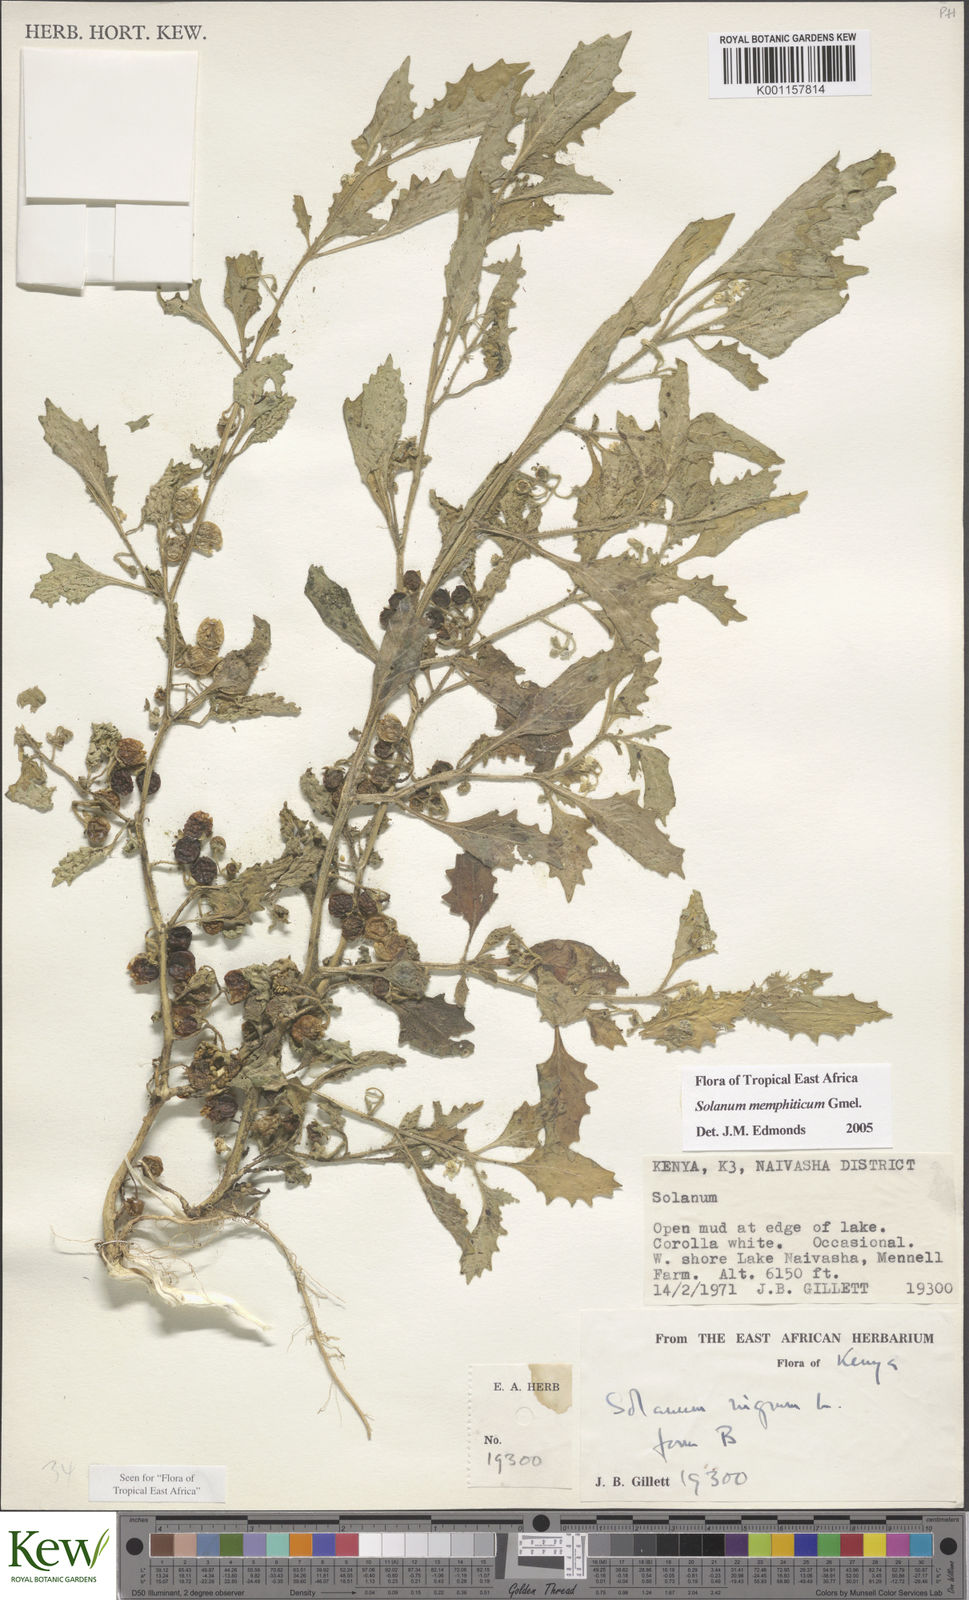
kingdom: Plantae
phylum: Tracheophyta
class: Magnoliopsida
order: Solanales
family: Solanaceae
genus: Solanum
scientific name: Solanum memphiticum
